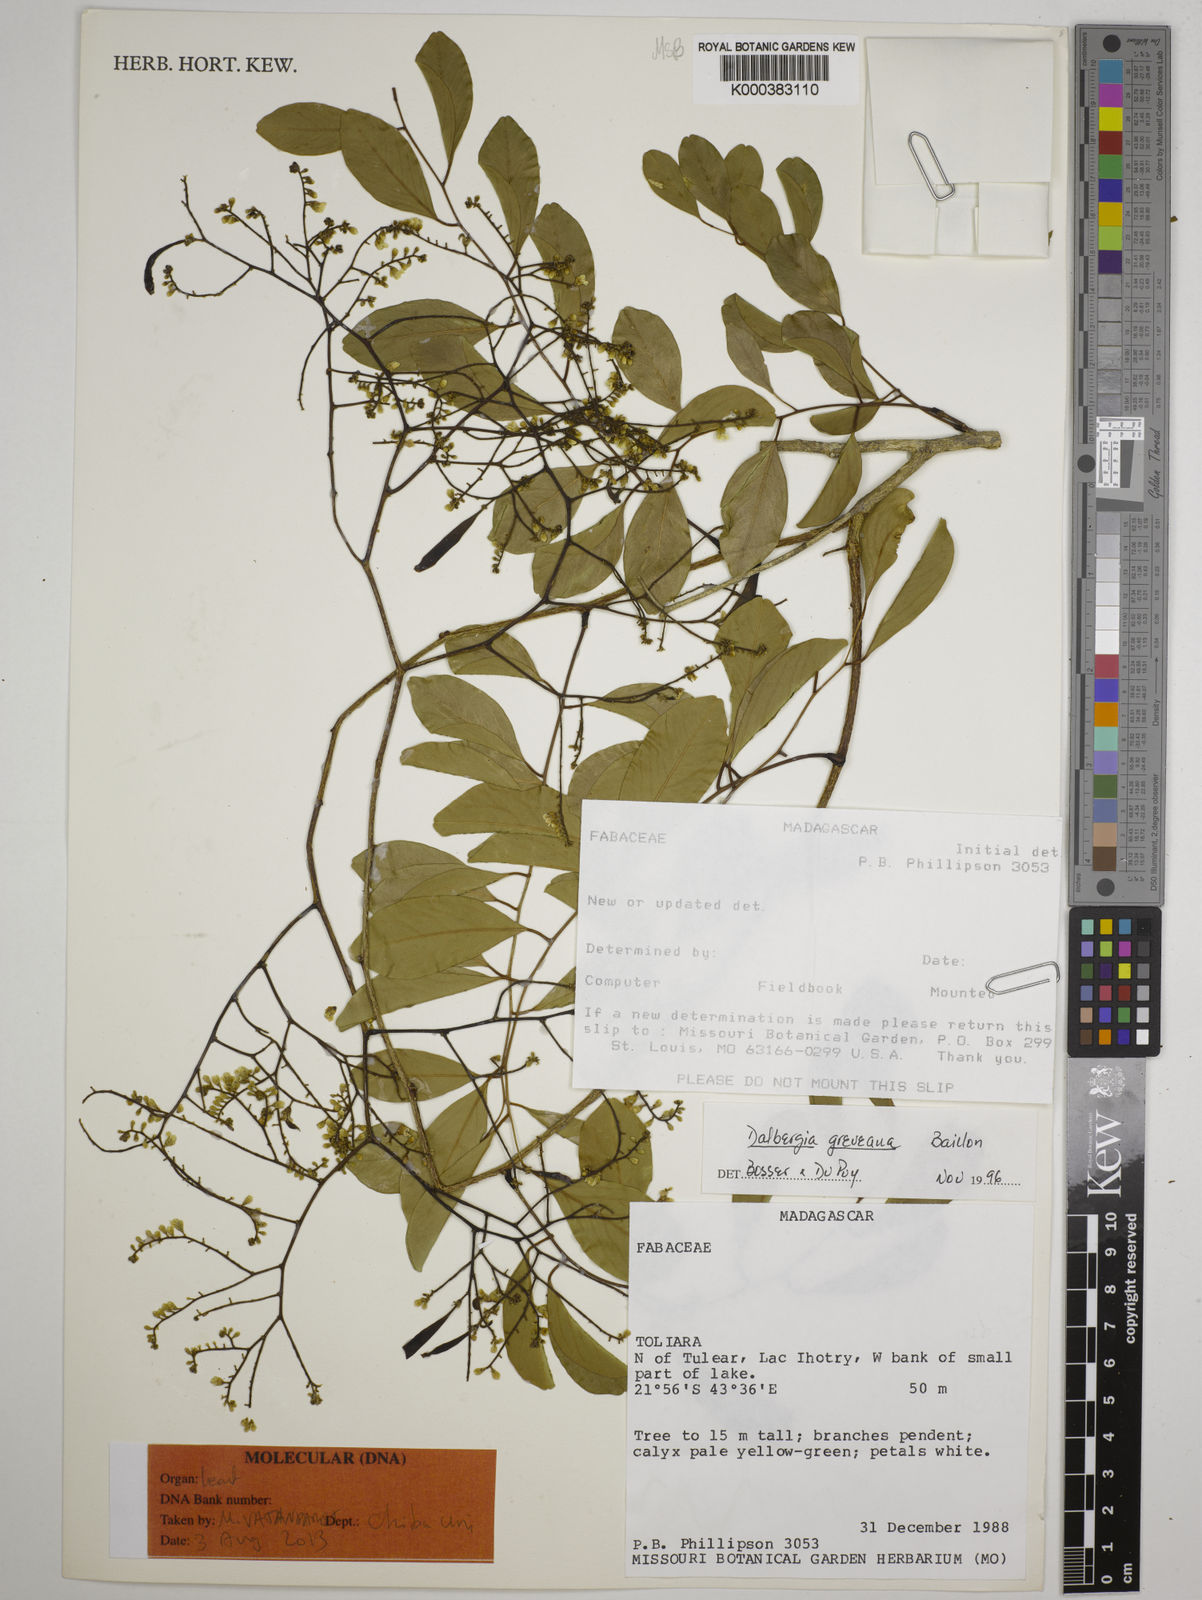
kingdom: Plantae
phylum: Tracheophyta
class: Magnoliopsida
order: Fabales
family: Fabaceae
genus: Dalbergia
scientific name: Dalbergia greveana
